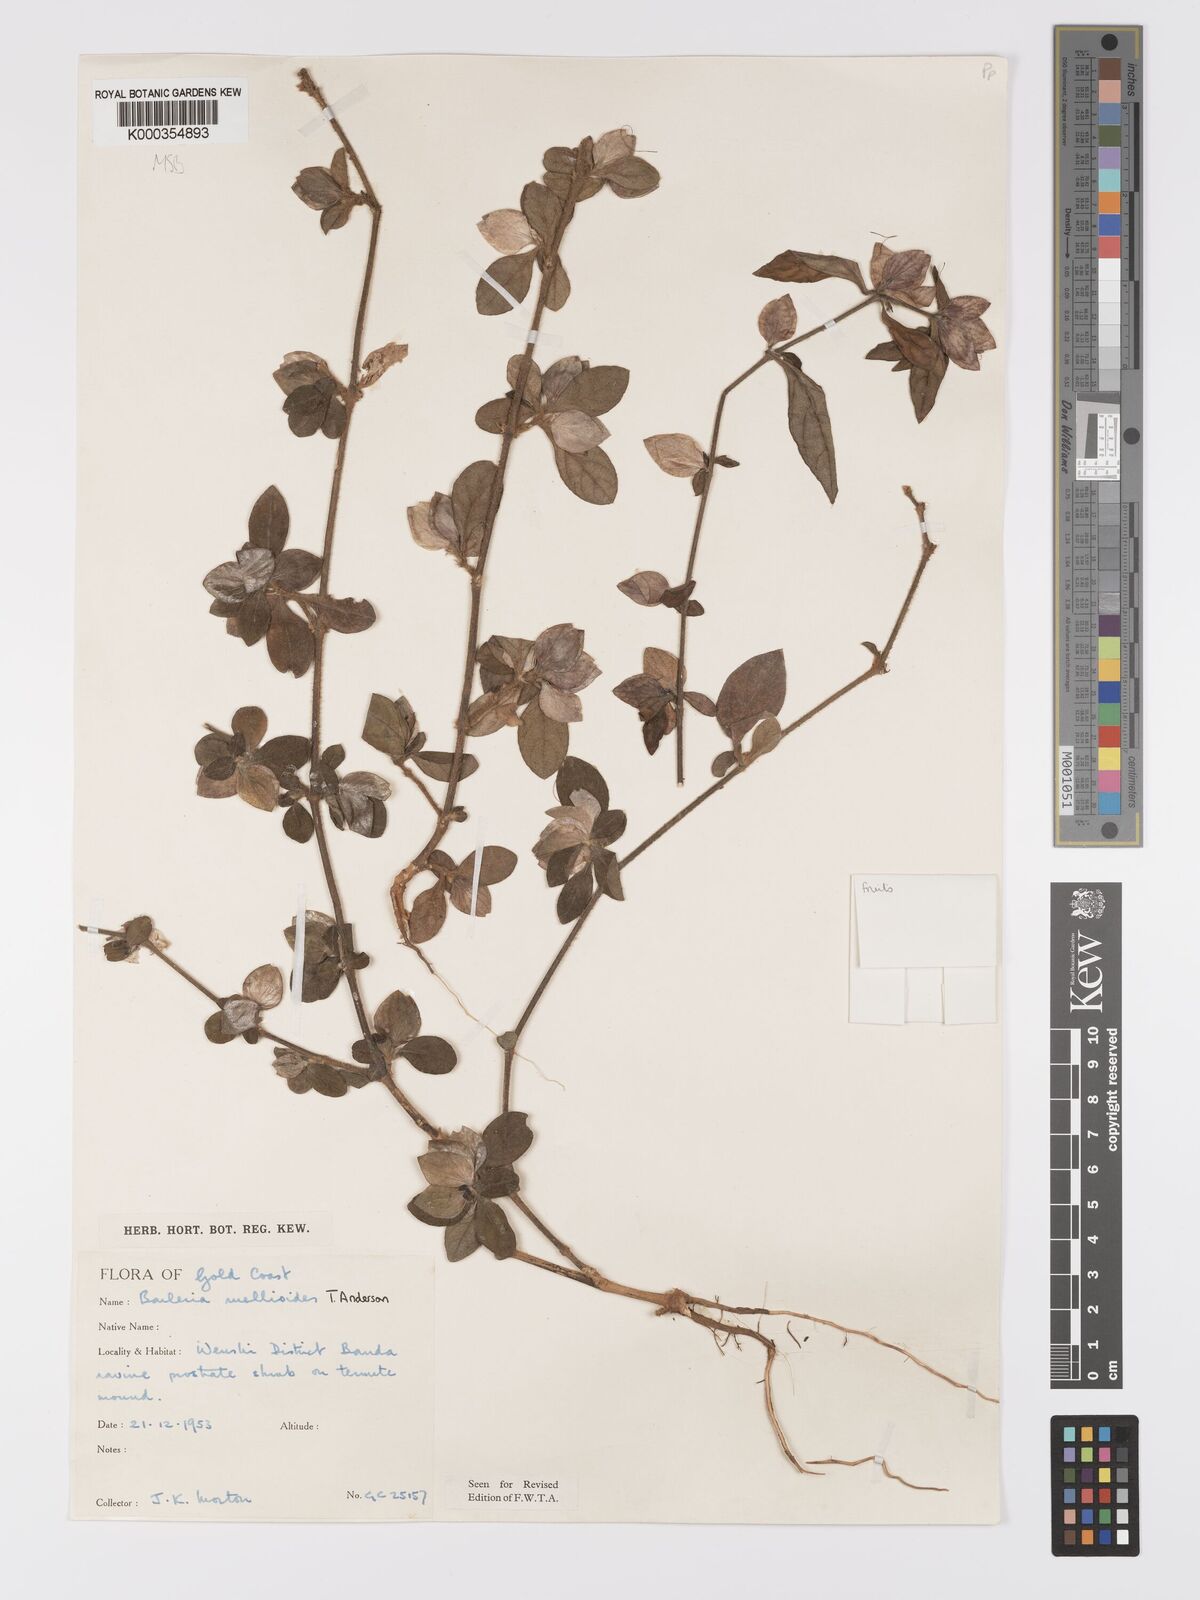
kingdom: Plantae
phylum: Tracheophyta
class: Magnoliopsida
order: Lamiales
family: Acanthaceae
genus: Barleria
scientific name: Barleria ruellioides
